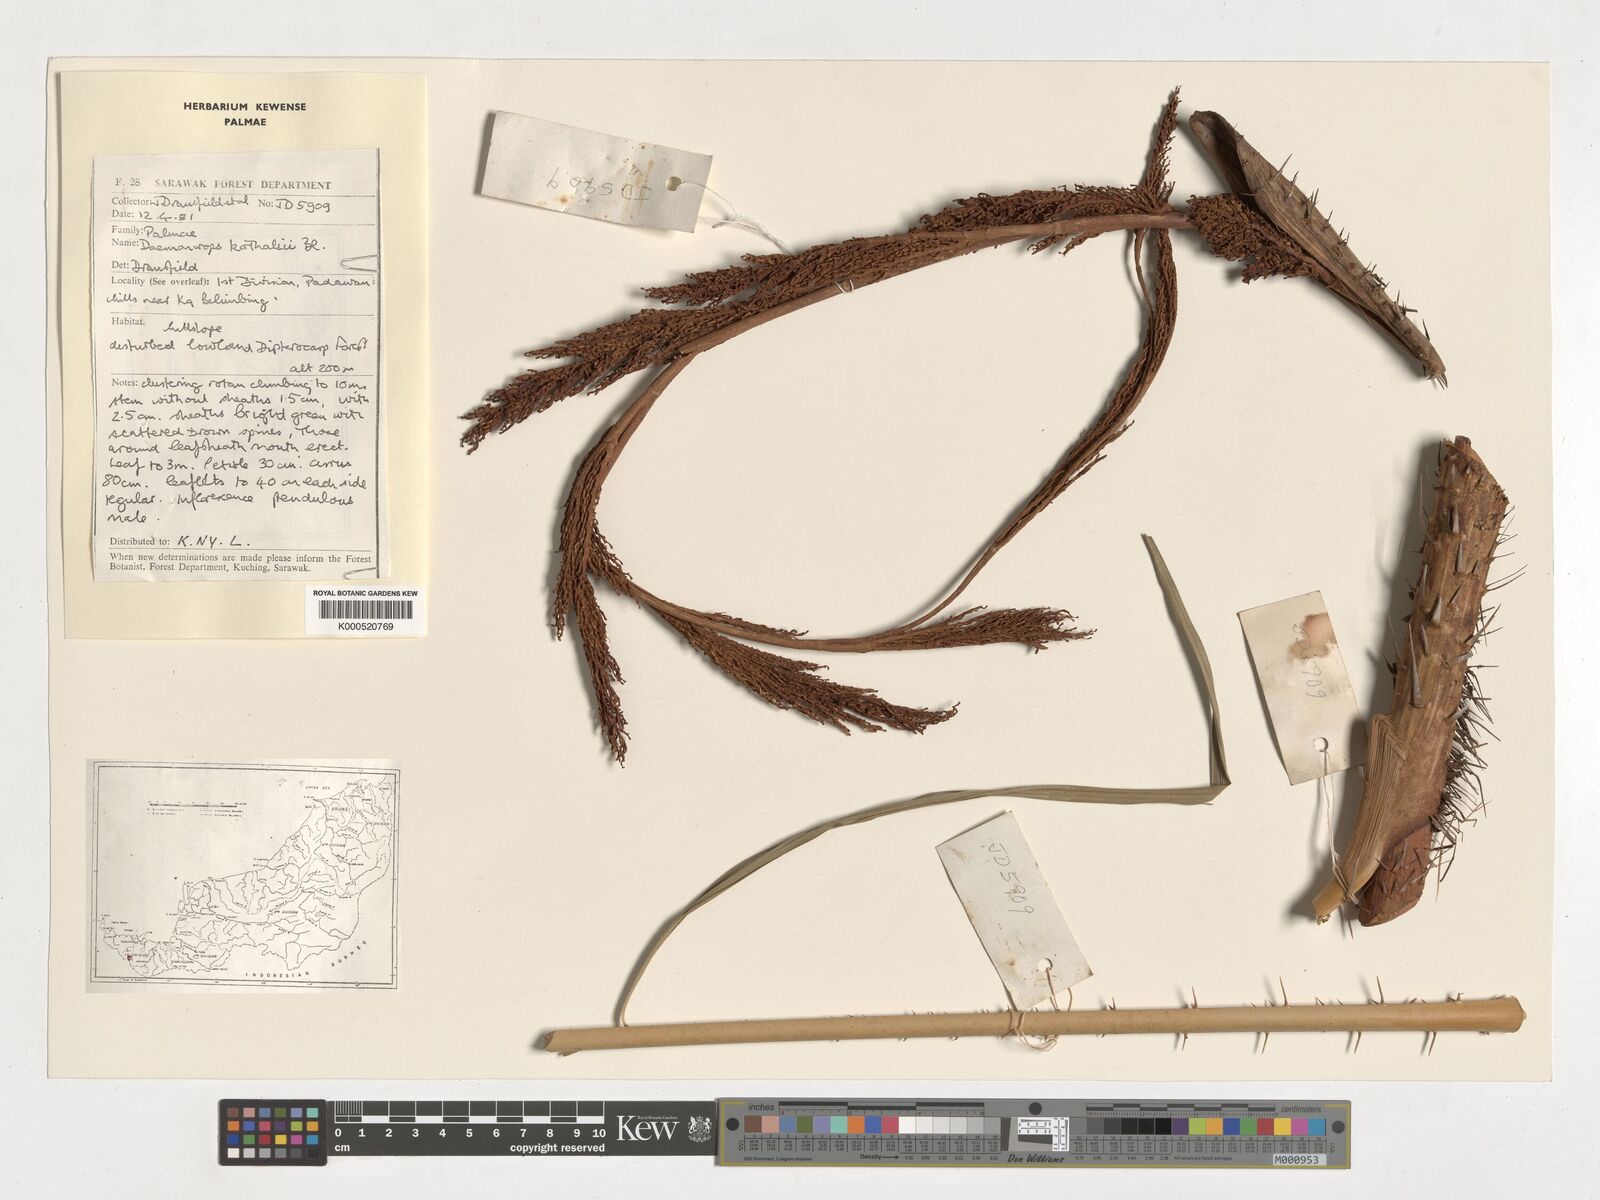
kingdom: Plantae
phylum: Tracheophyta
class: Liliopsida
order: Arecales
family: Arecaceae
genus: Calamus
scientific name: Calamus hirsutus
